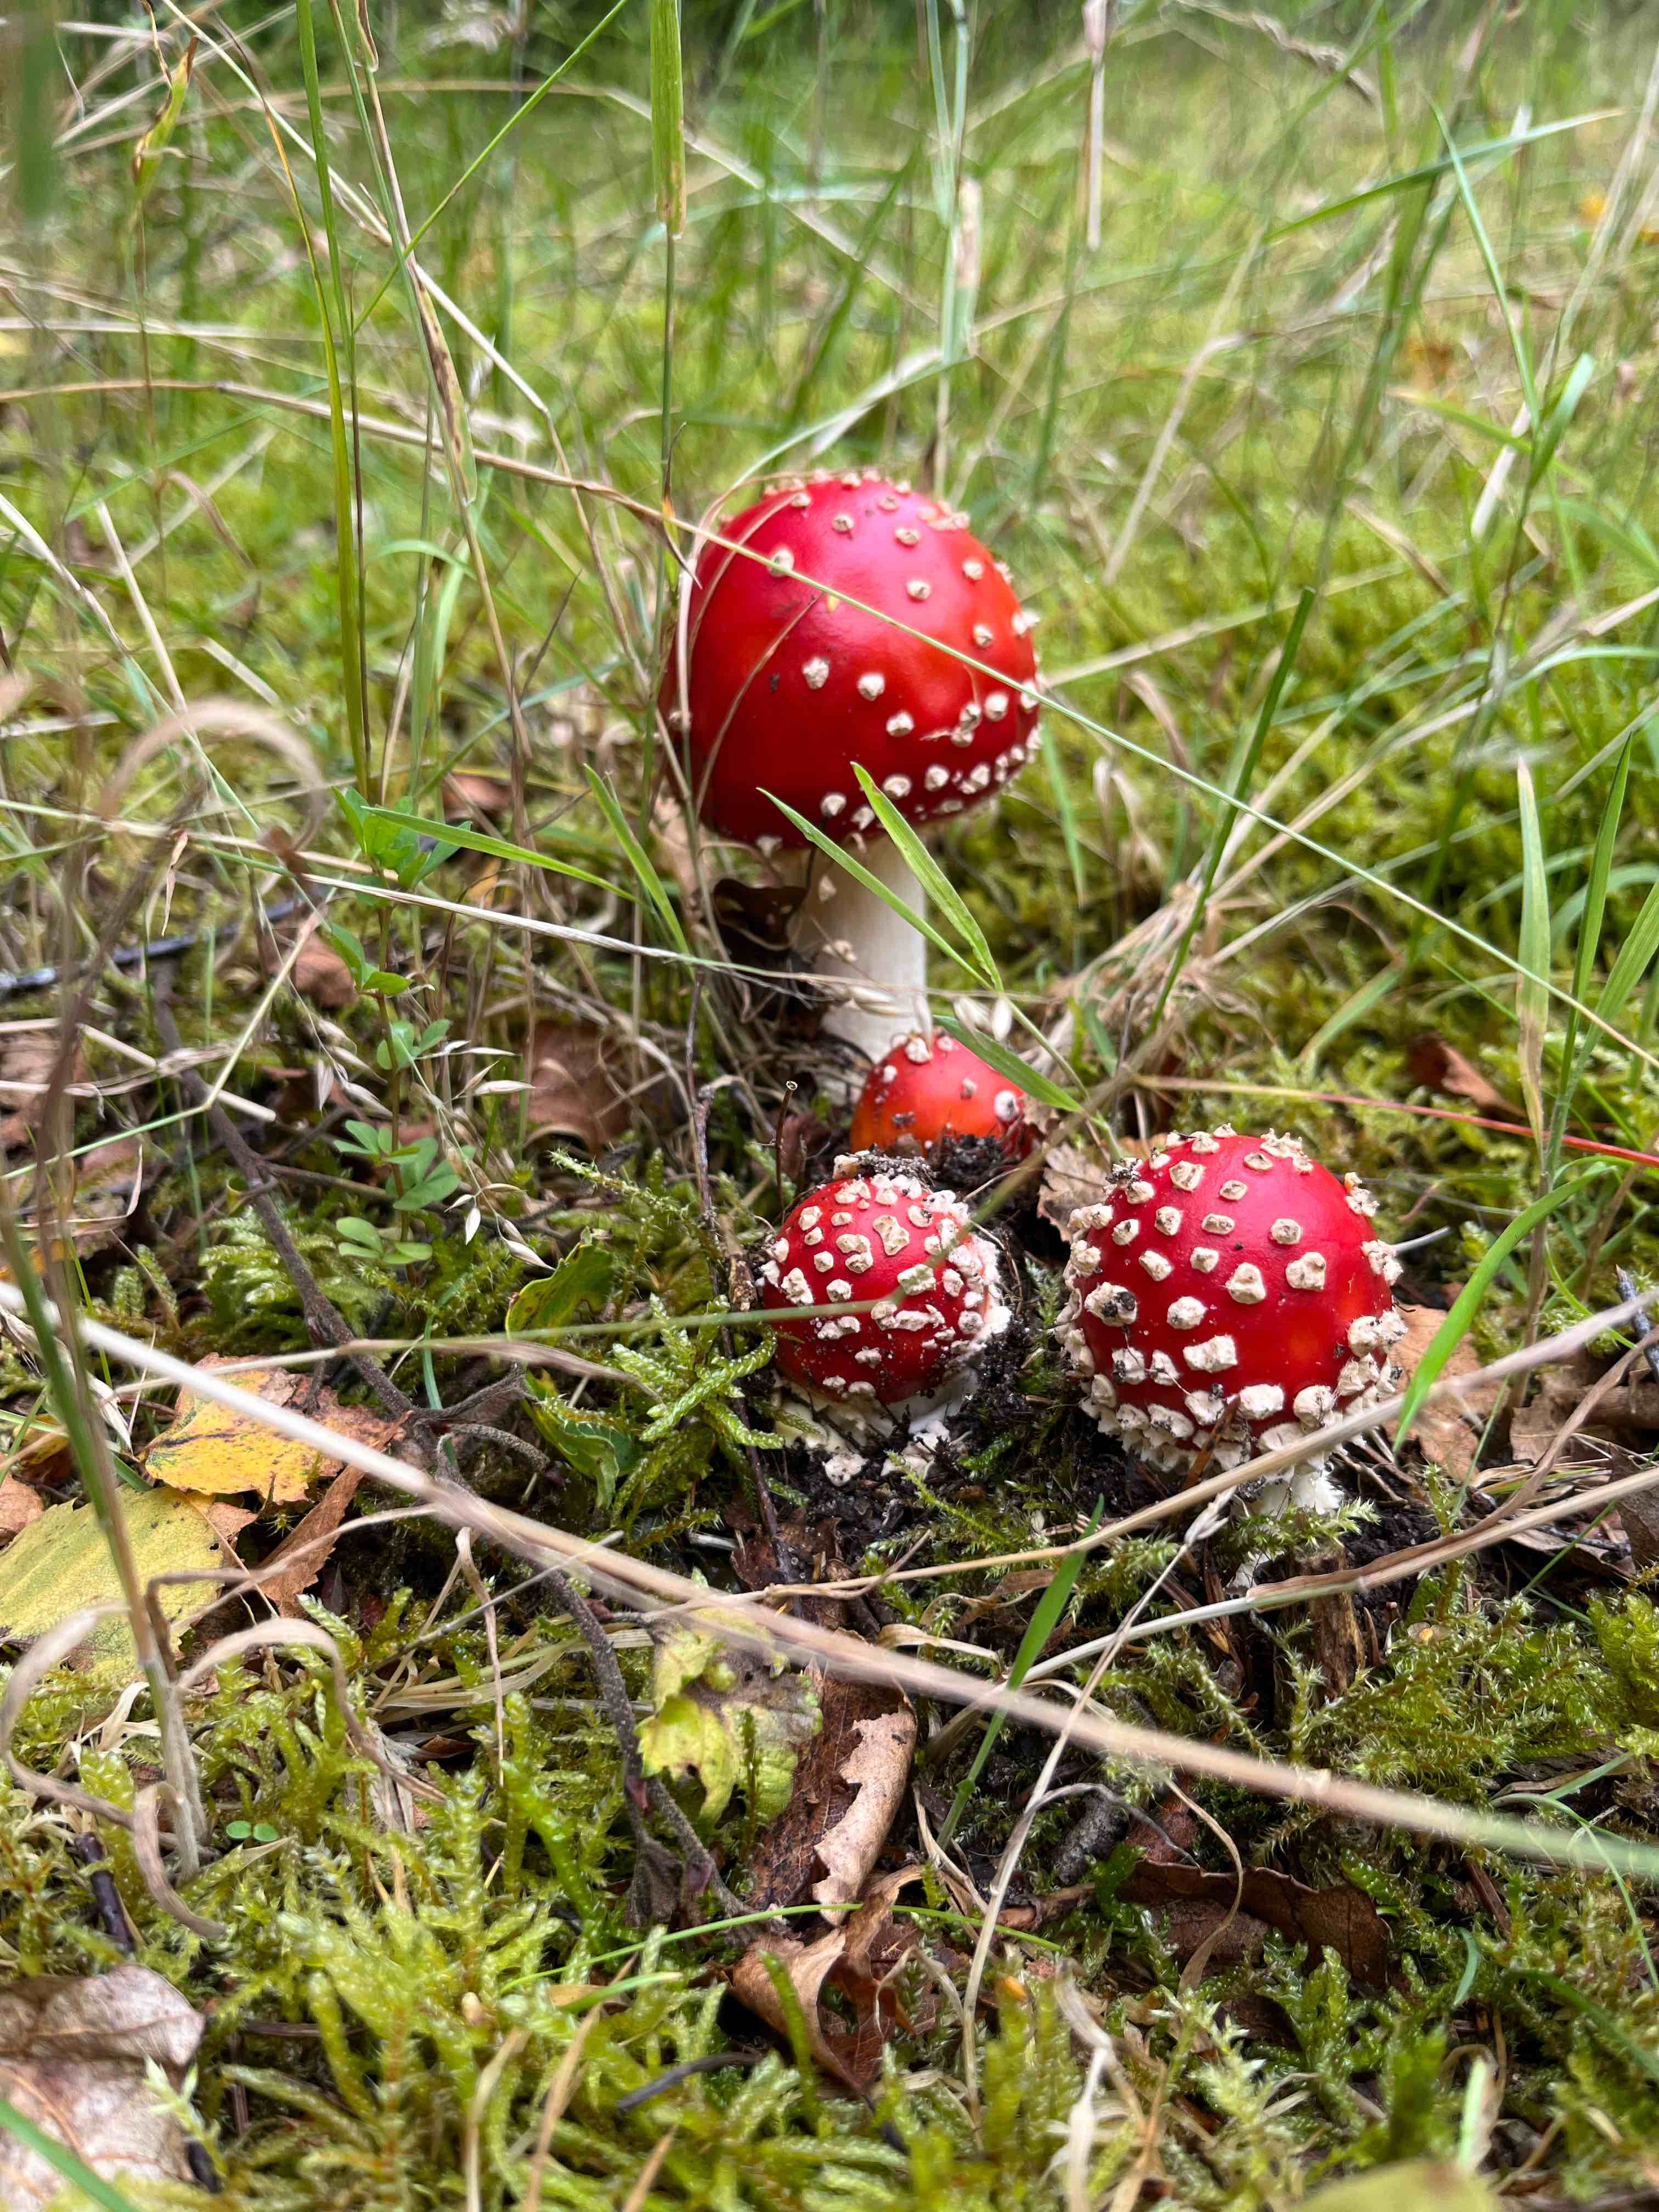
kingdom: Fungi
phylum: Basidiomycota
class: Agaricomycetes
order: Agaricales
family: Amanitaceae
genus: Amanita
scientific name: Amanita muscaria
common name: rød fluesvamp
